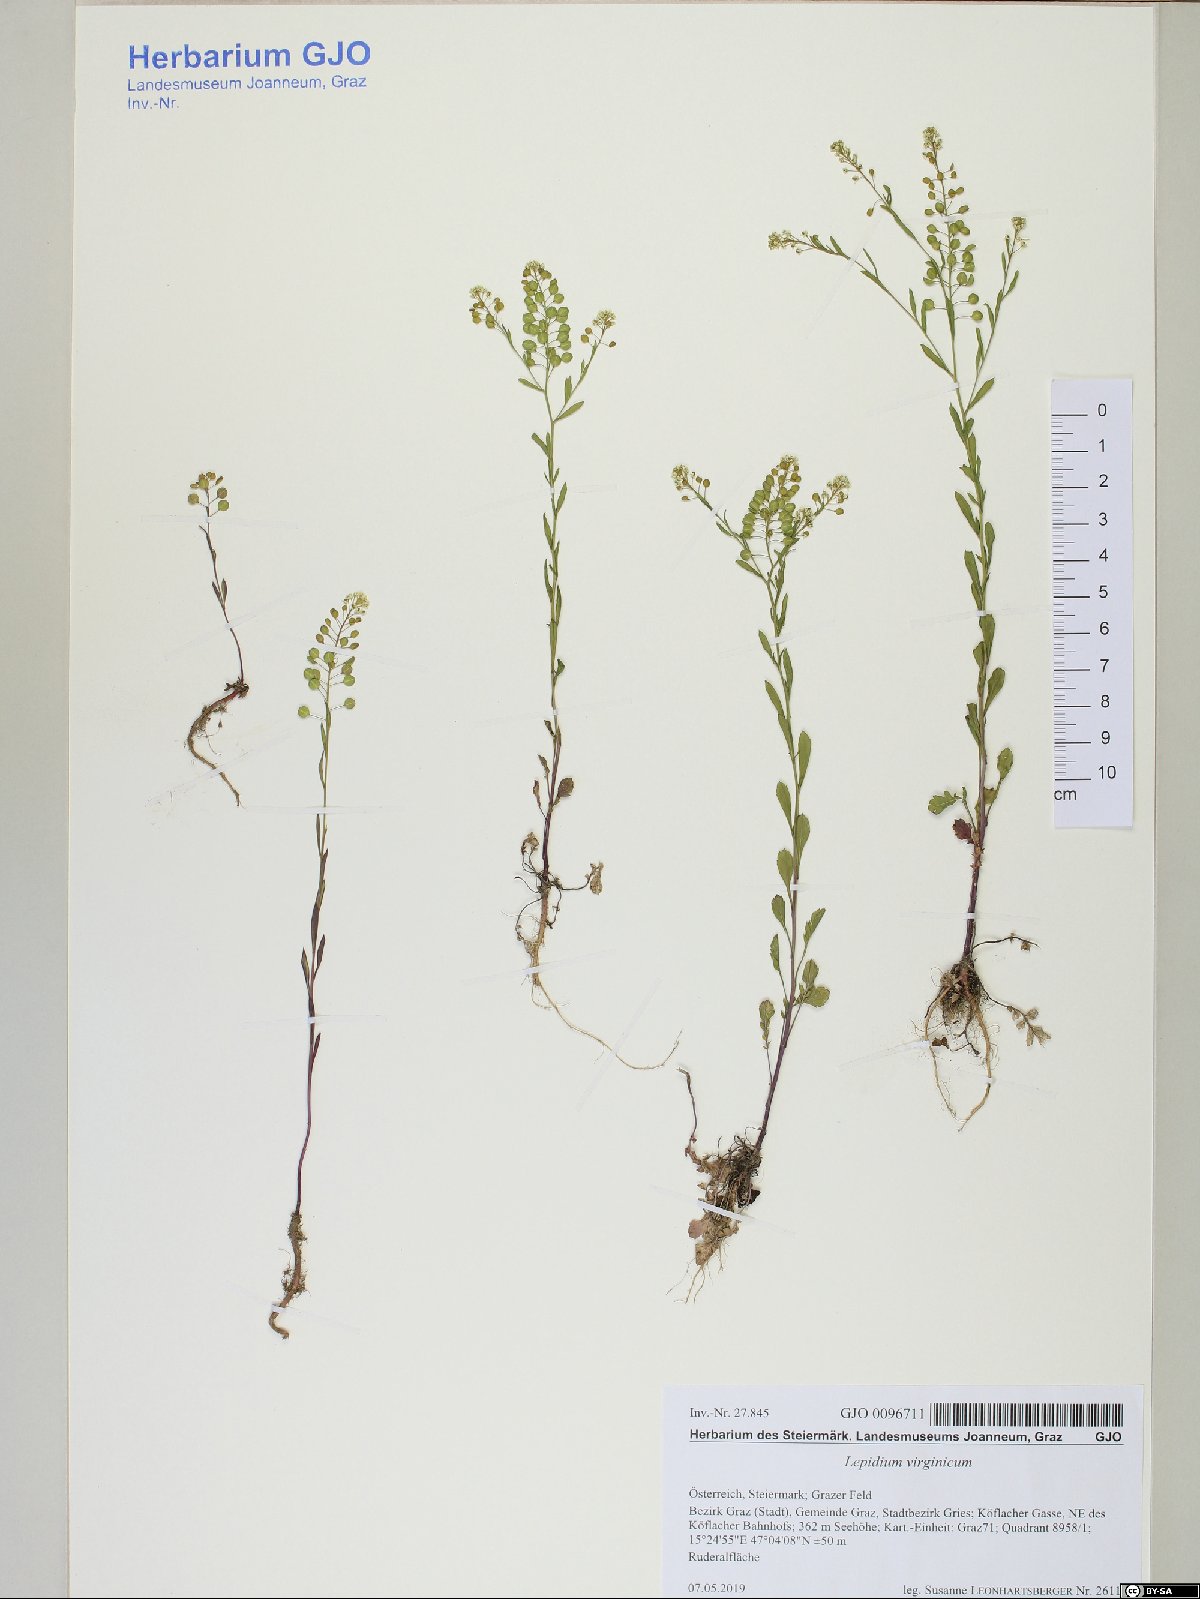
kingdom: Plantae
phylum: Tracheophyta
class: Magnoliopsida
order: Brassicales
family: Brassicaceae
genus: Lepidium
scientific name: Lepidium virginicum
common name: Least pepperwort
